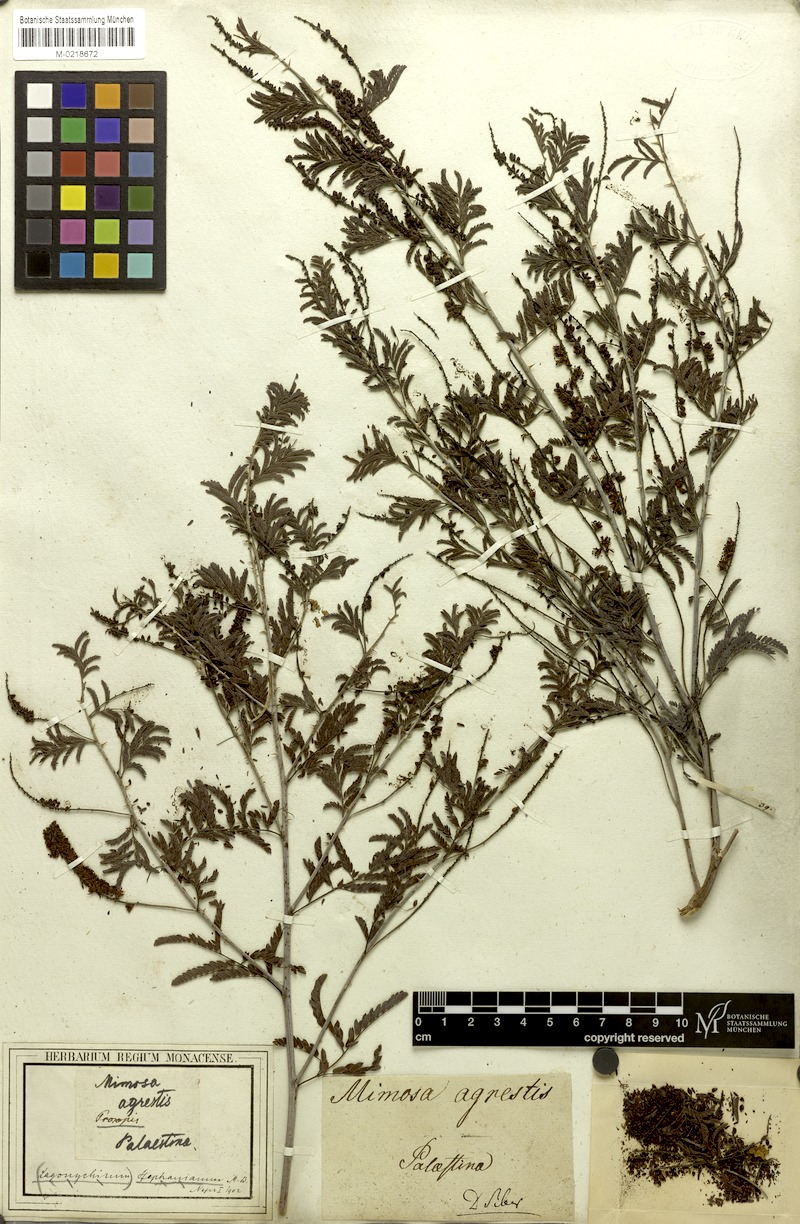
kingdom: Plantae
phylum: Tracheophyta
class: Magnoliopsida
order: Fabales
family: Fabaceae
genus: Prosopis
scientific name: Prosopis farcta
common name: Syrian mesquite
